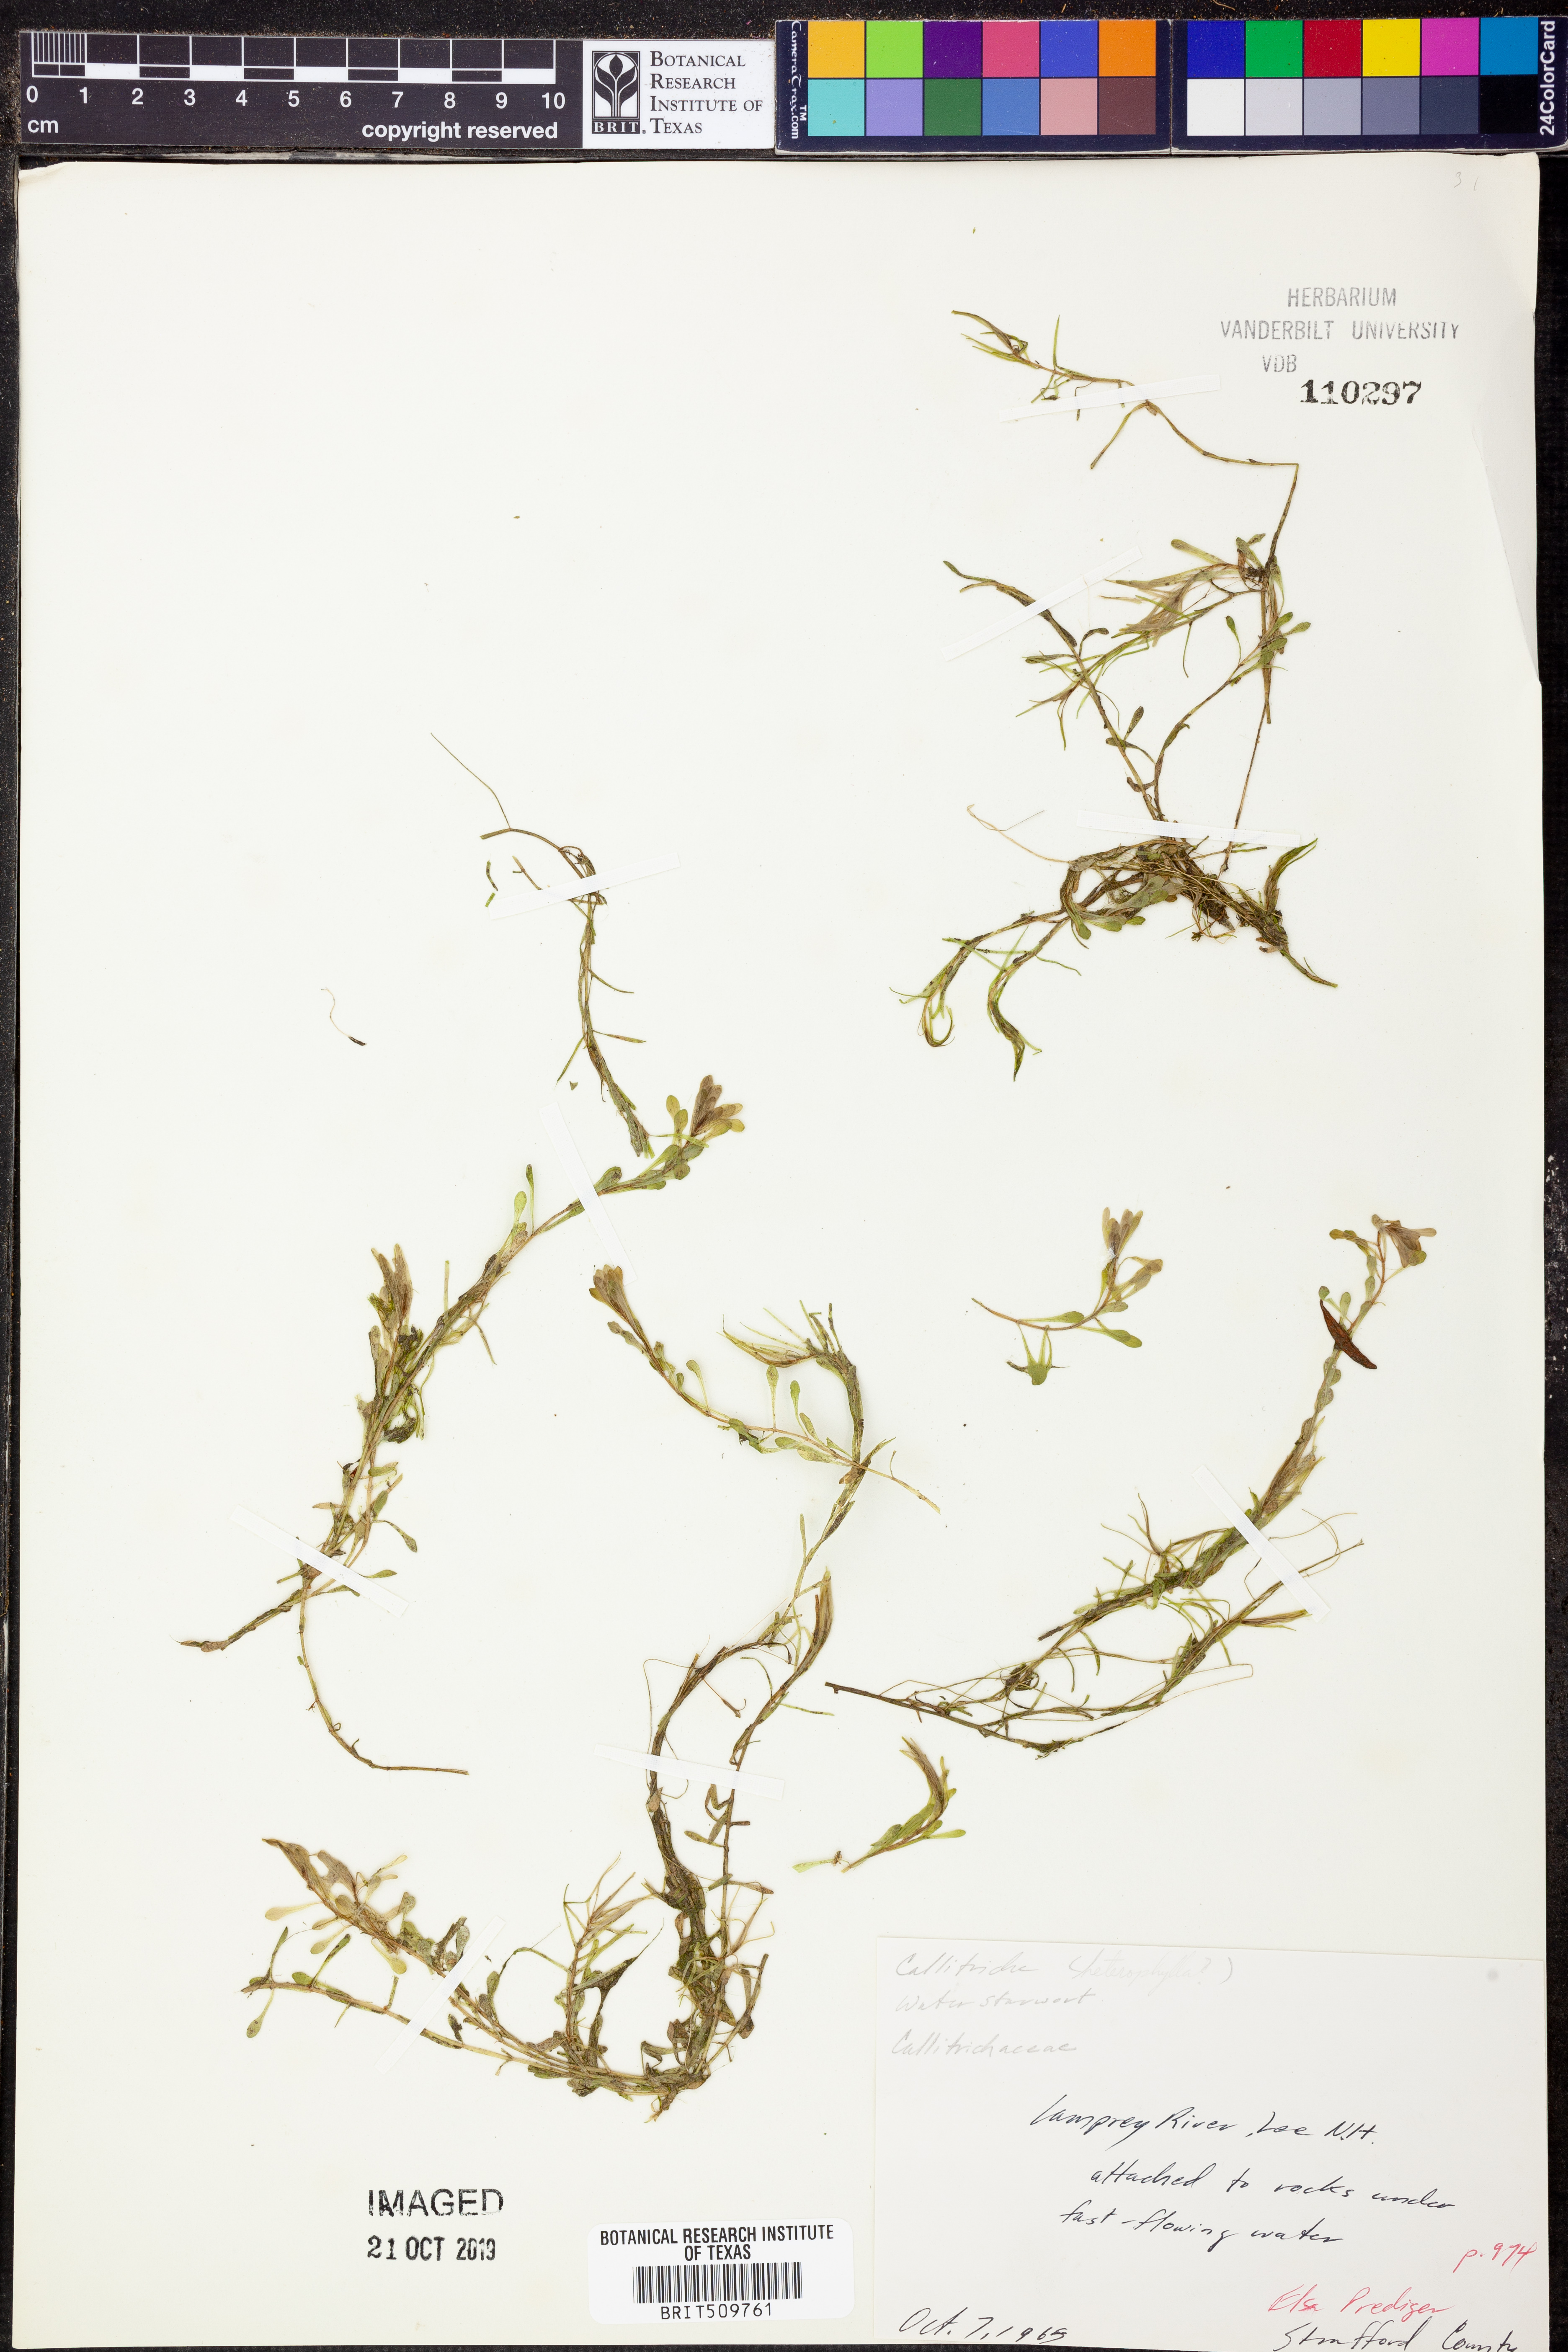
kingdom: Plantae
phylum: Tracheophyta
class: Magnoliopsida
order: Lamiales
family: Plantaginaceae
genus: Callitriche
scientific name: Callitriche heterophylla
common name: Two-headed water-starwort
